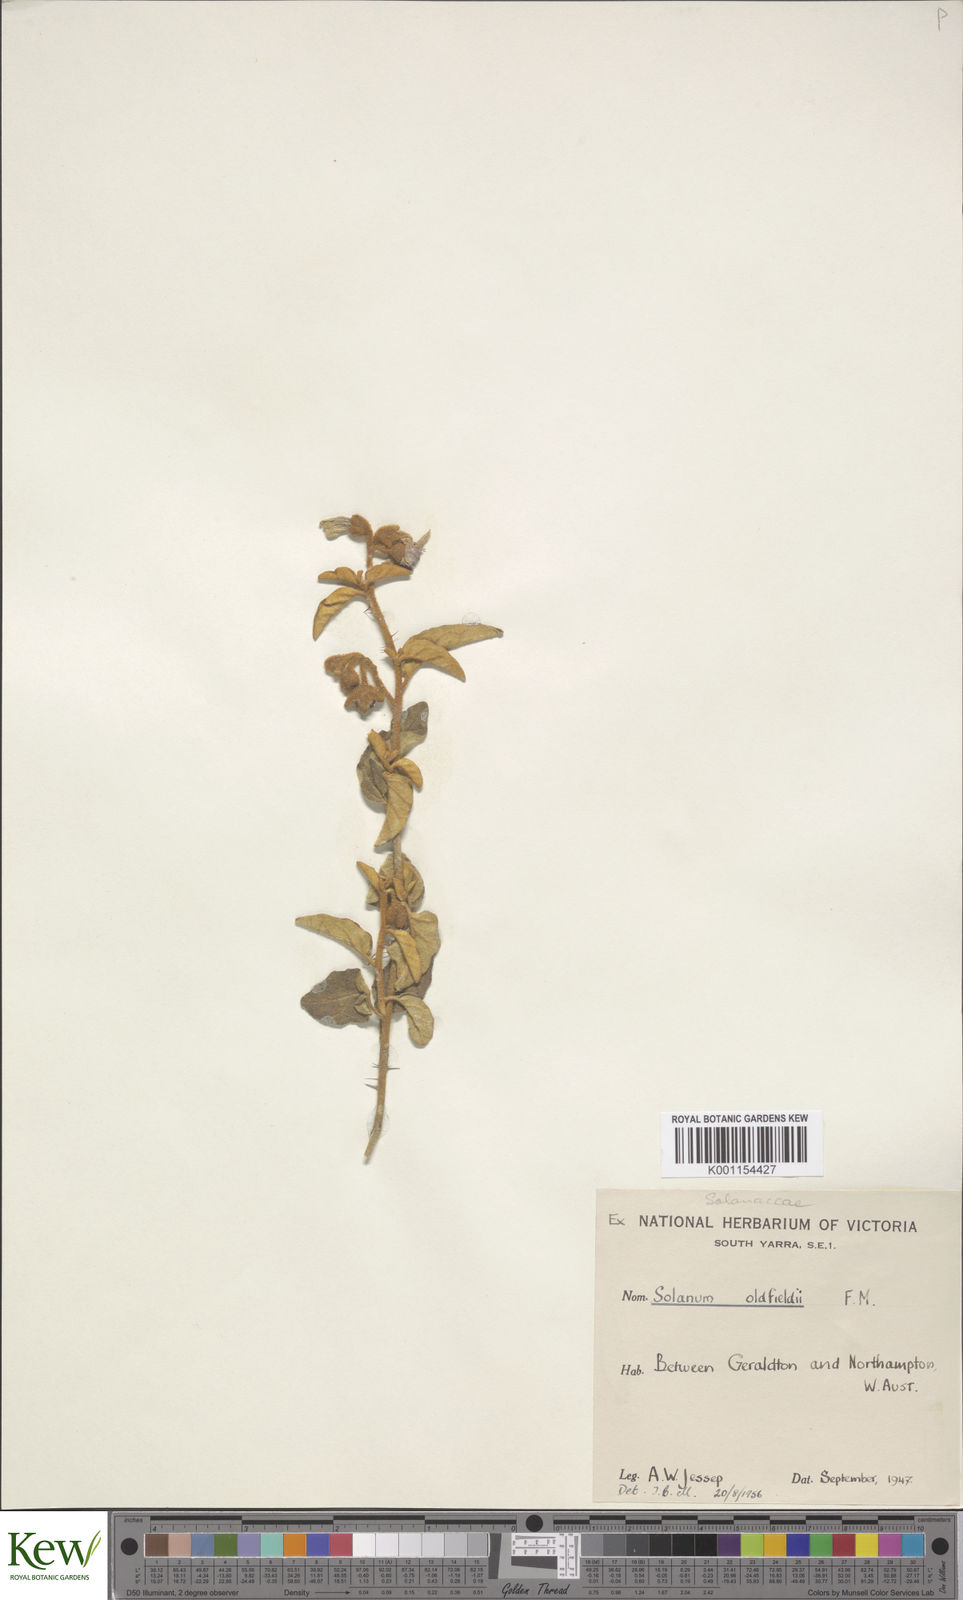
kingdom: Plantae
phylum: Tracheophyta
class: Magnoliopsida
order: Solanales
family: Solanaceae
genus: Solanum
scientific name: Solanum oldfieldii
